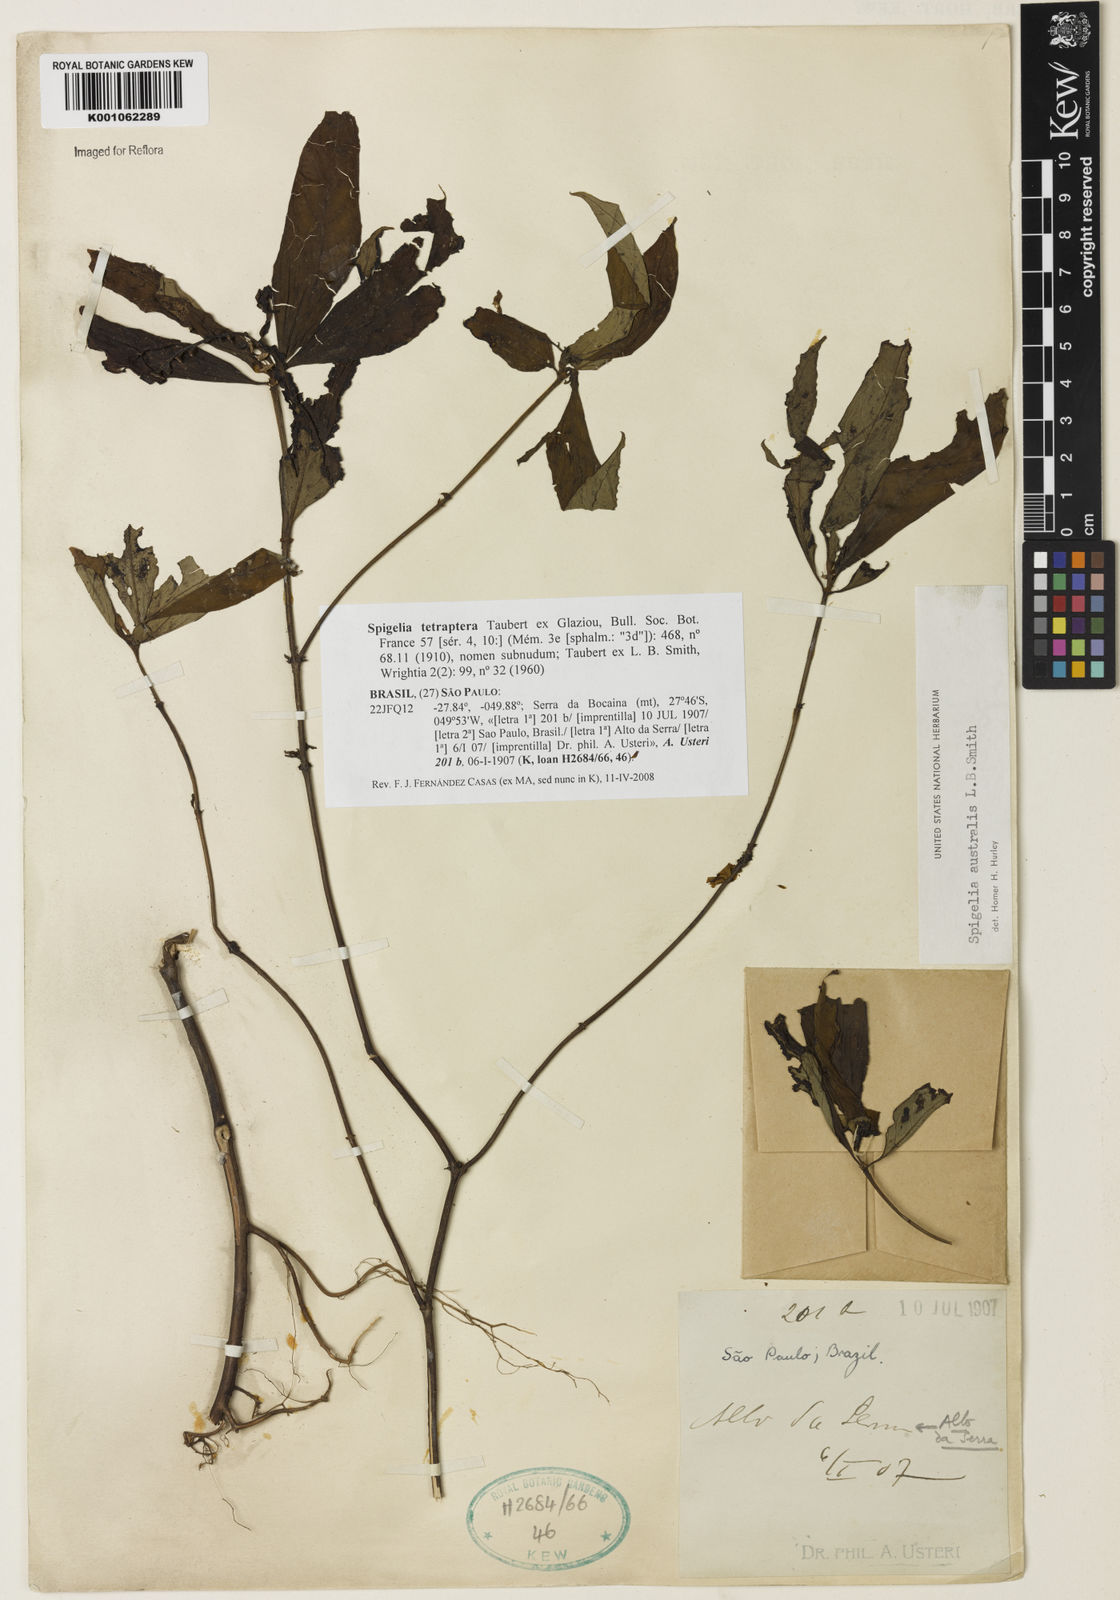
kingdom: Plantae
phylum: Tracheophyta
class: Magnoliopsida
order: Gentianales
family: Loganiaceae
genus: Spigelia
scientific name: Spigelia tetraptera
